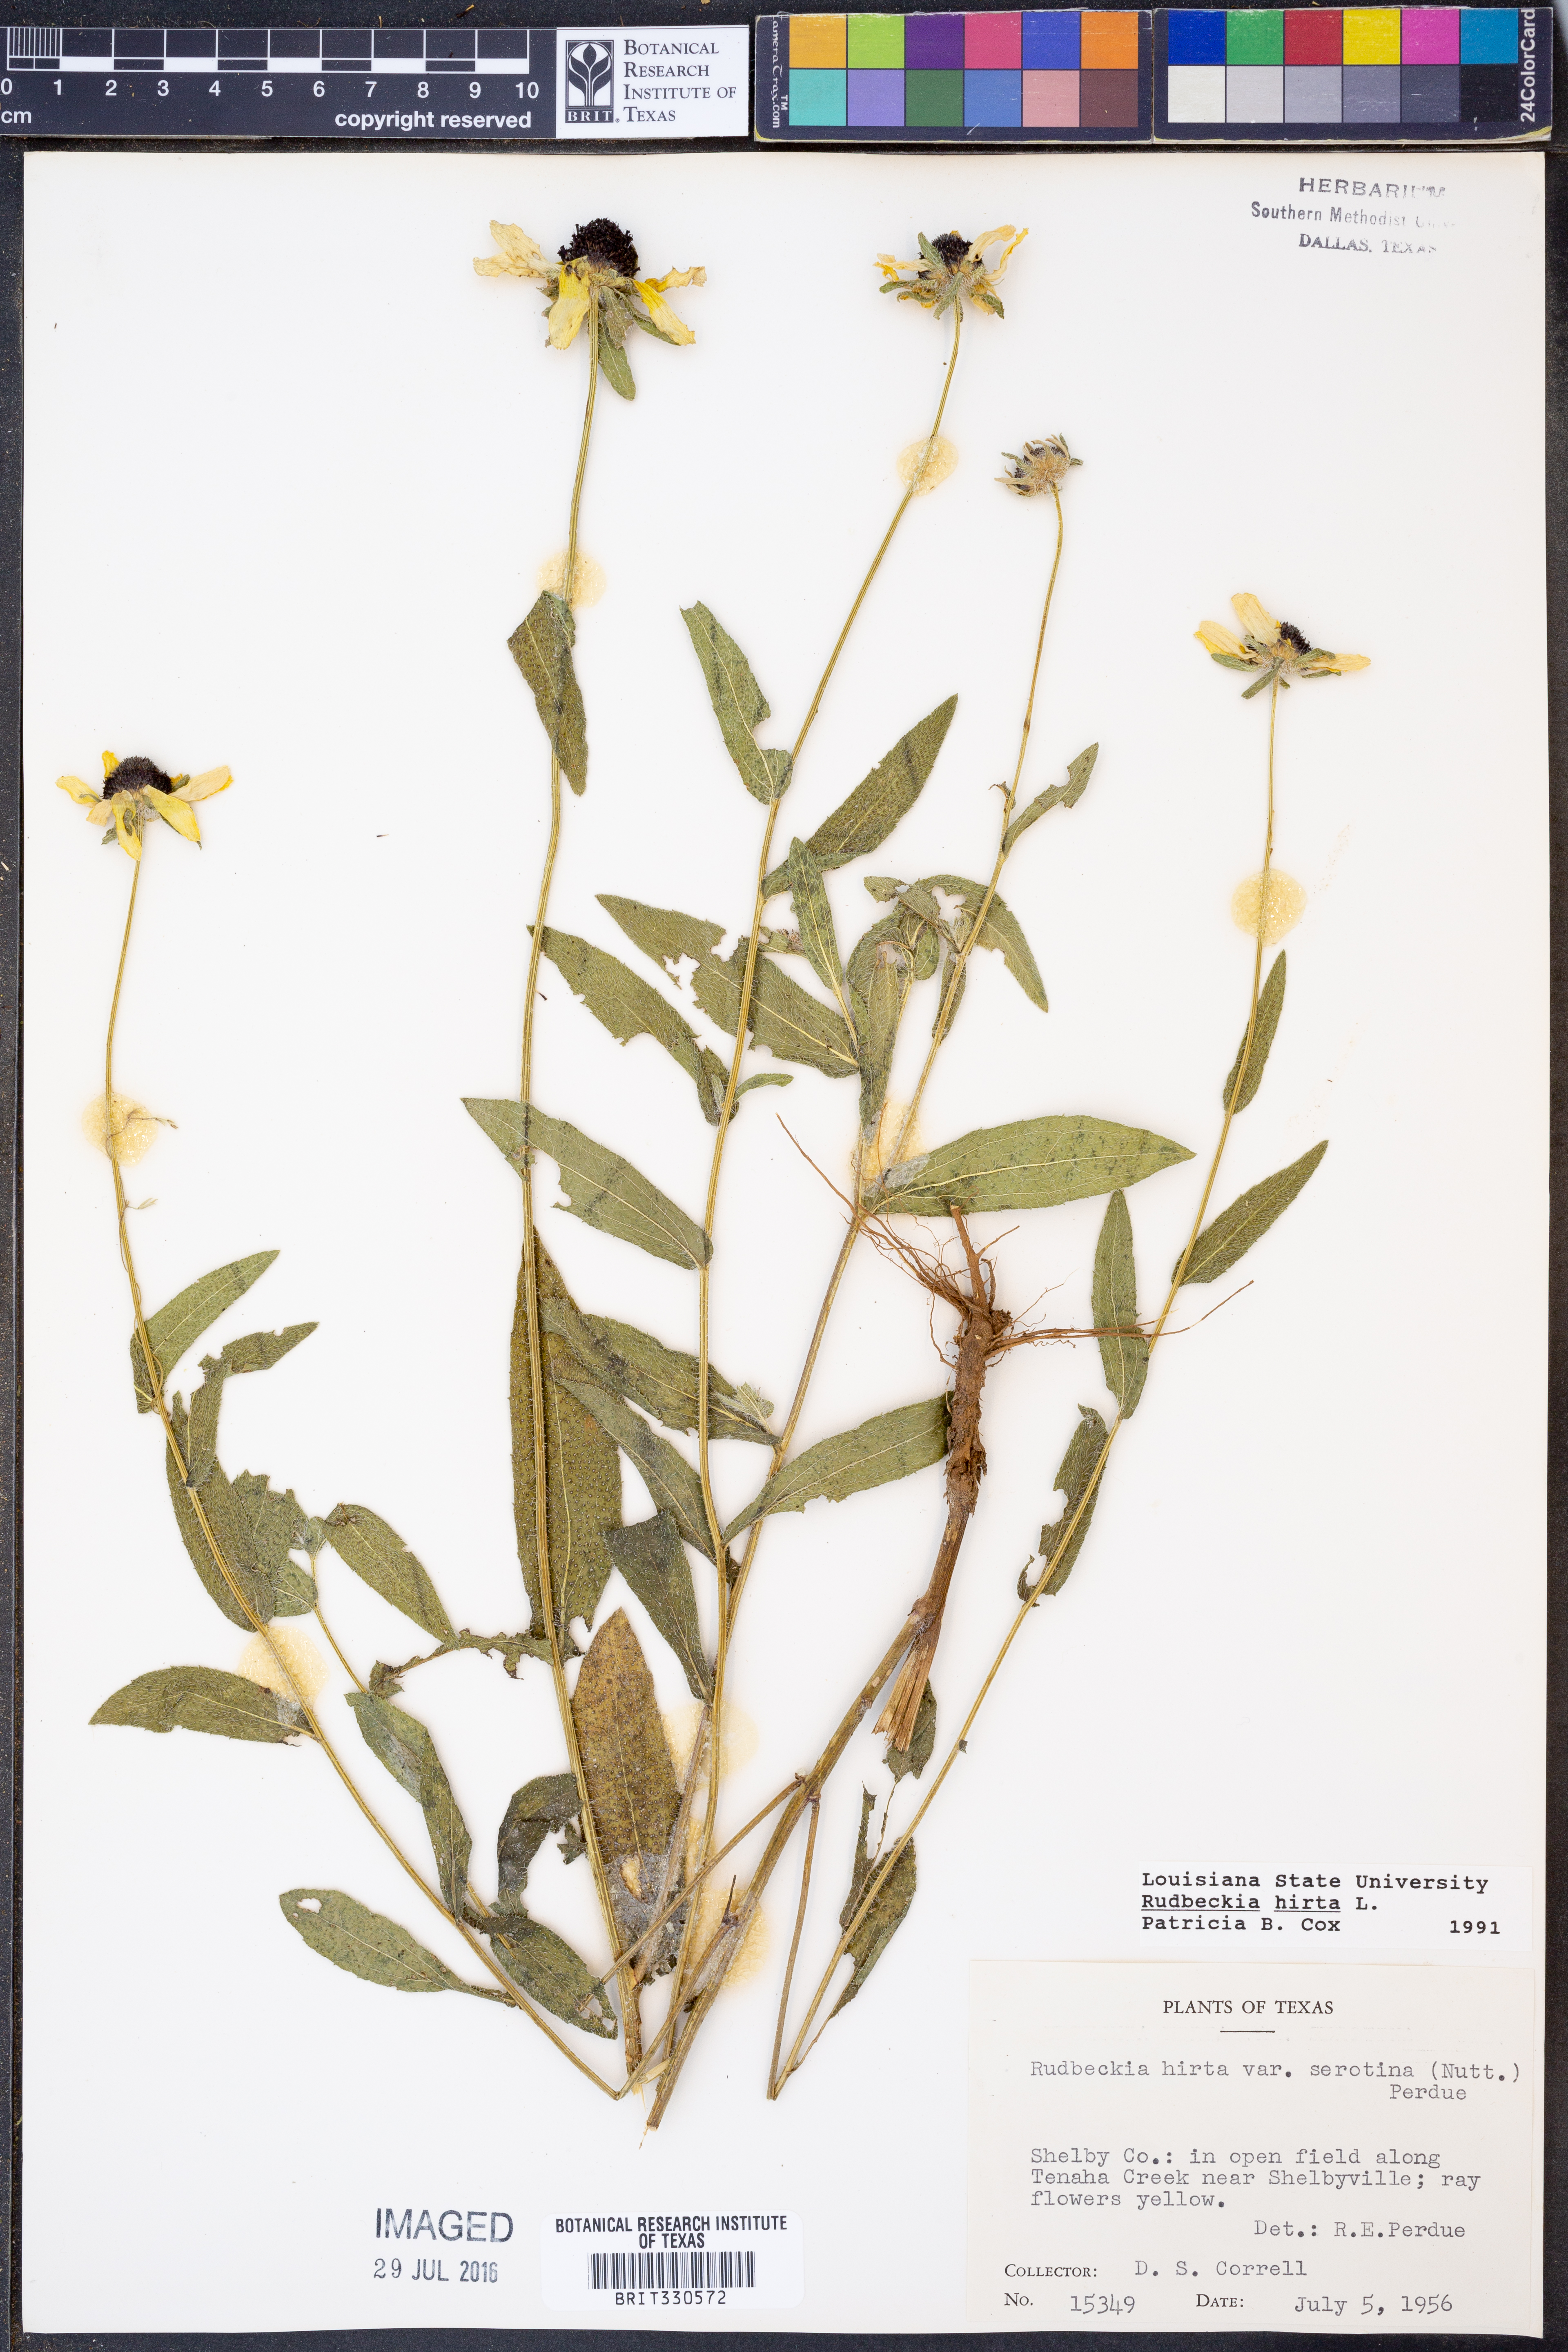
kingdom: Plantae
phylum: Tracheophyta
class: Magnoliopsida
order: Asterales
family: Asteraceae
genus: Rudbeckia
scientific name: Rudbeckia hirta
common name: Black-eyed-susan
